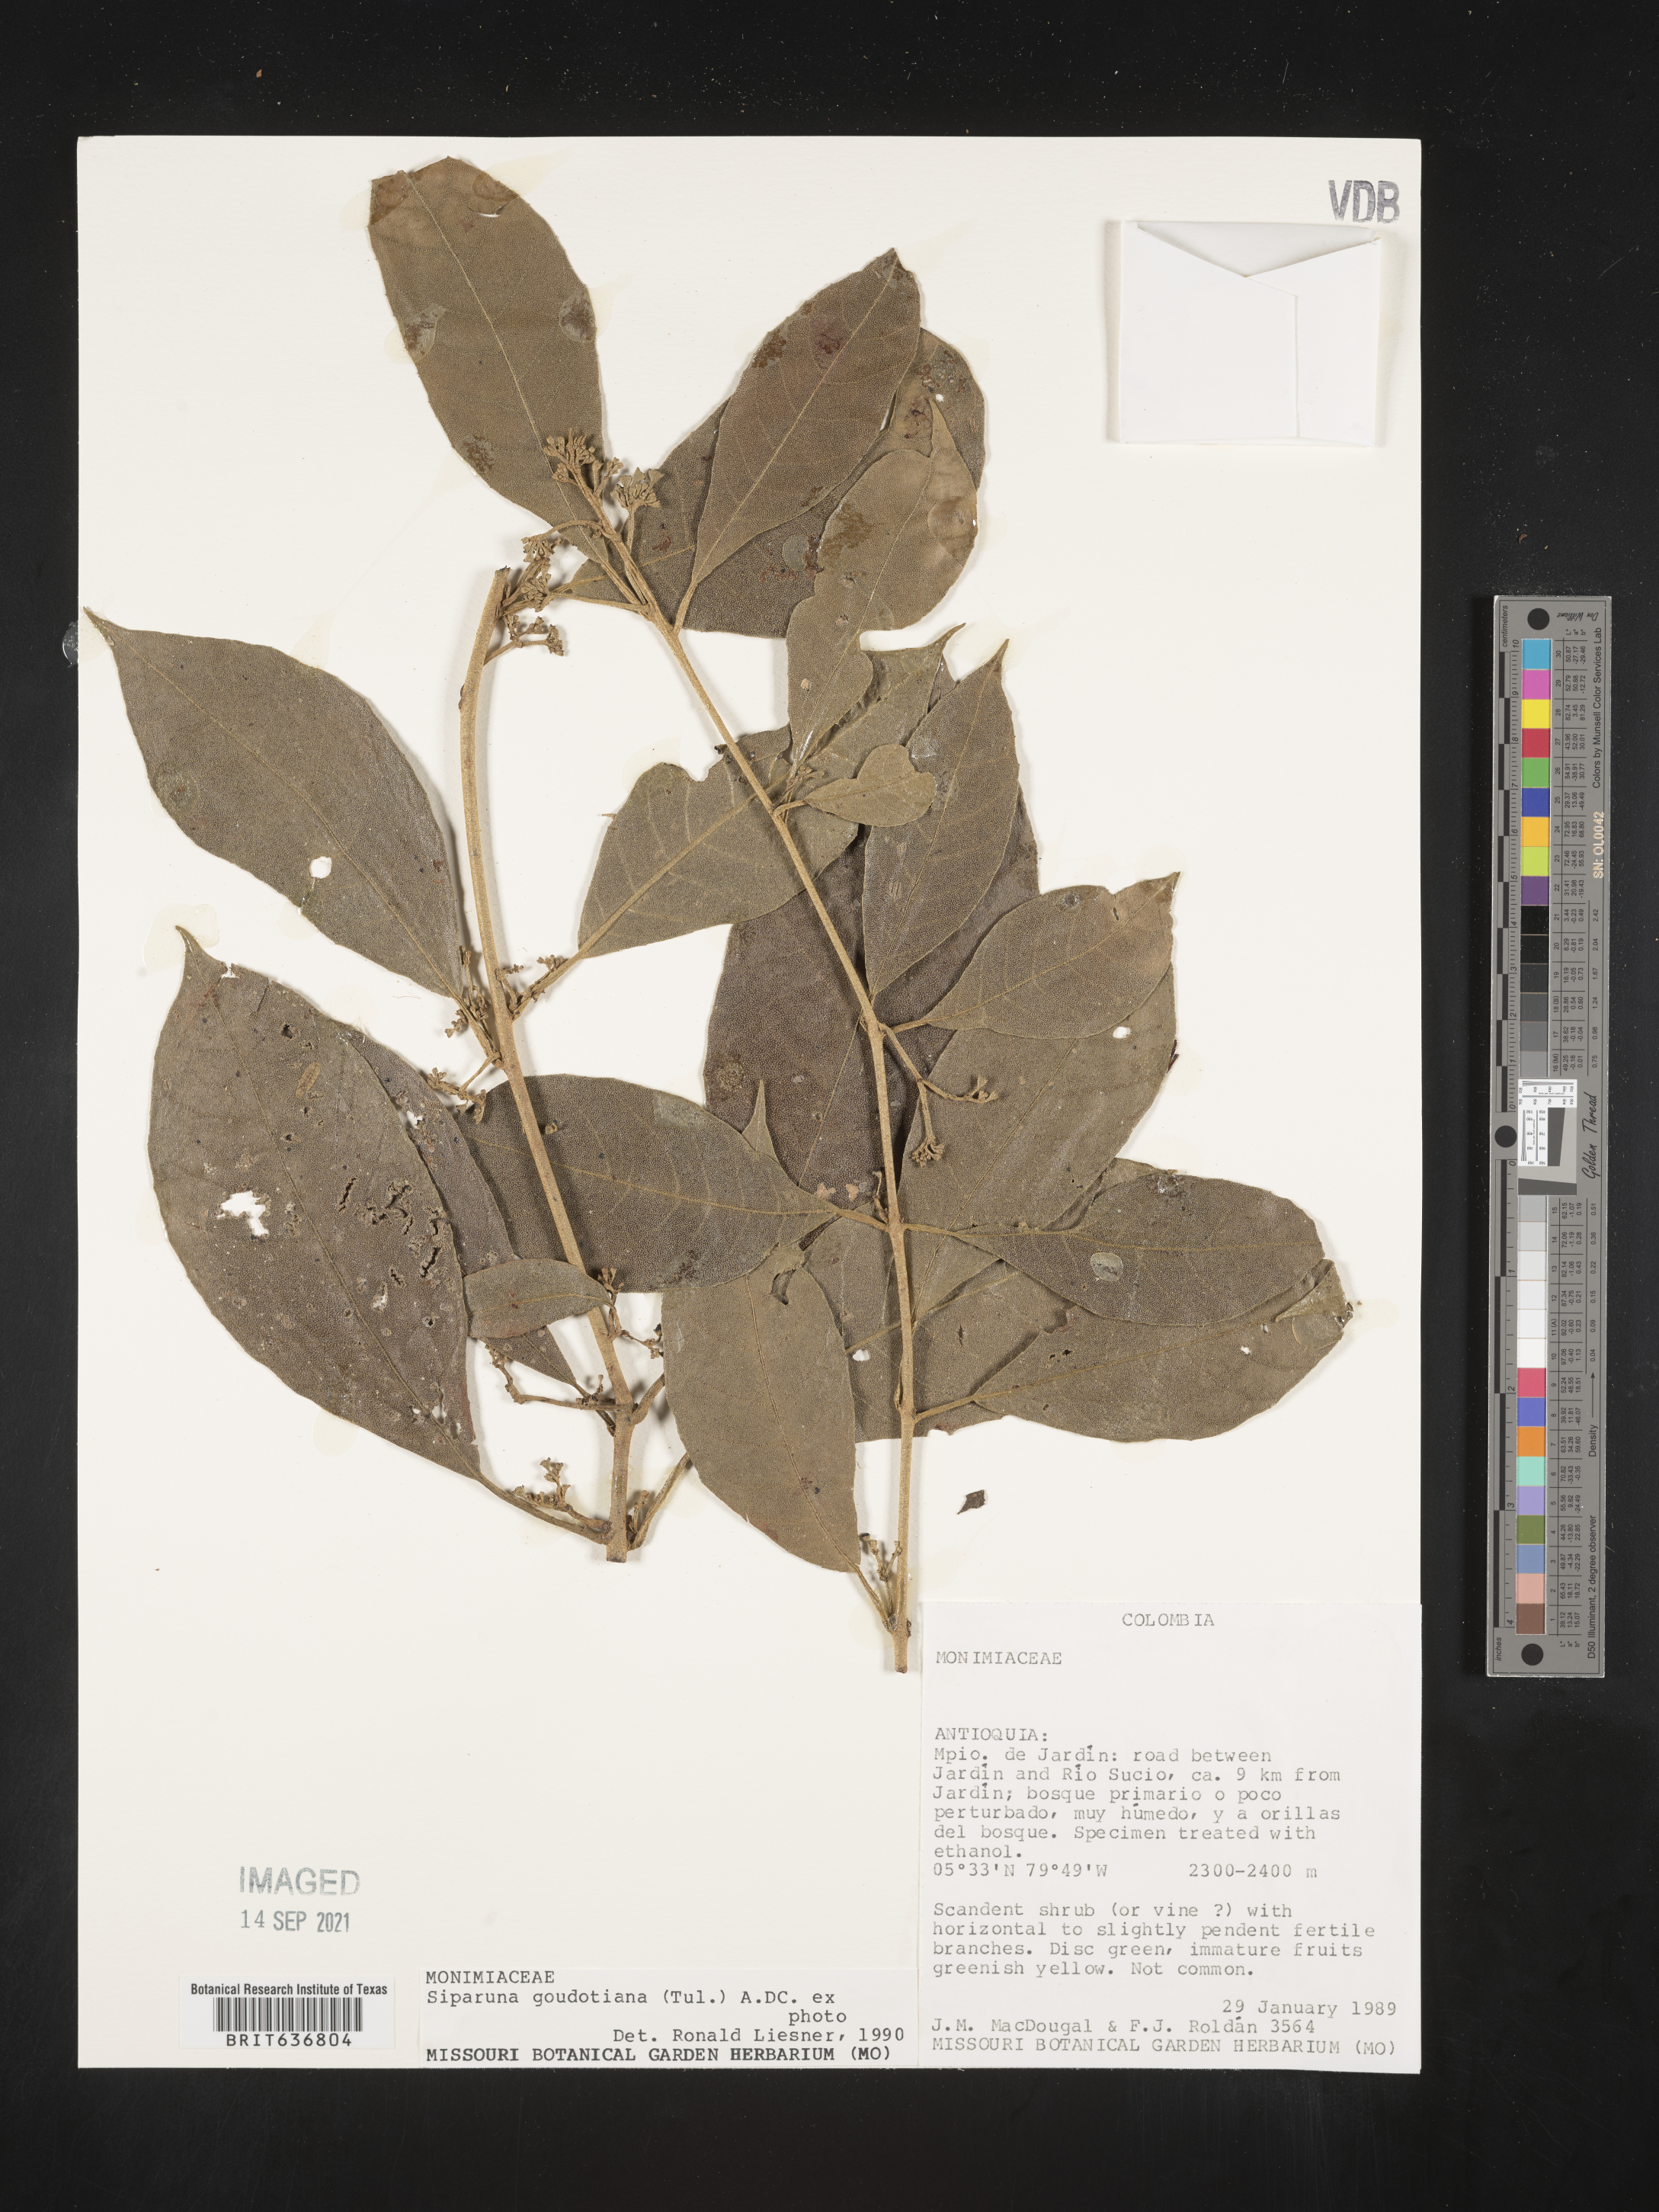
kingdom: Plantae
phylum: Tracheophyta
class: Magnoliopsida
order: Laurales
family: Siparunaceae
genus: Siparuna
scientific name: Siparuna
